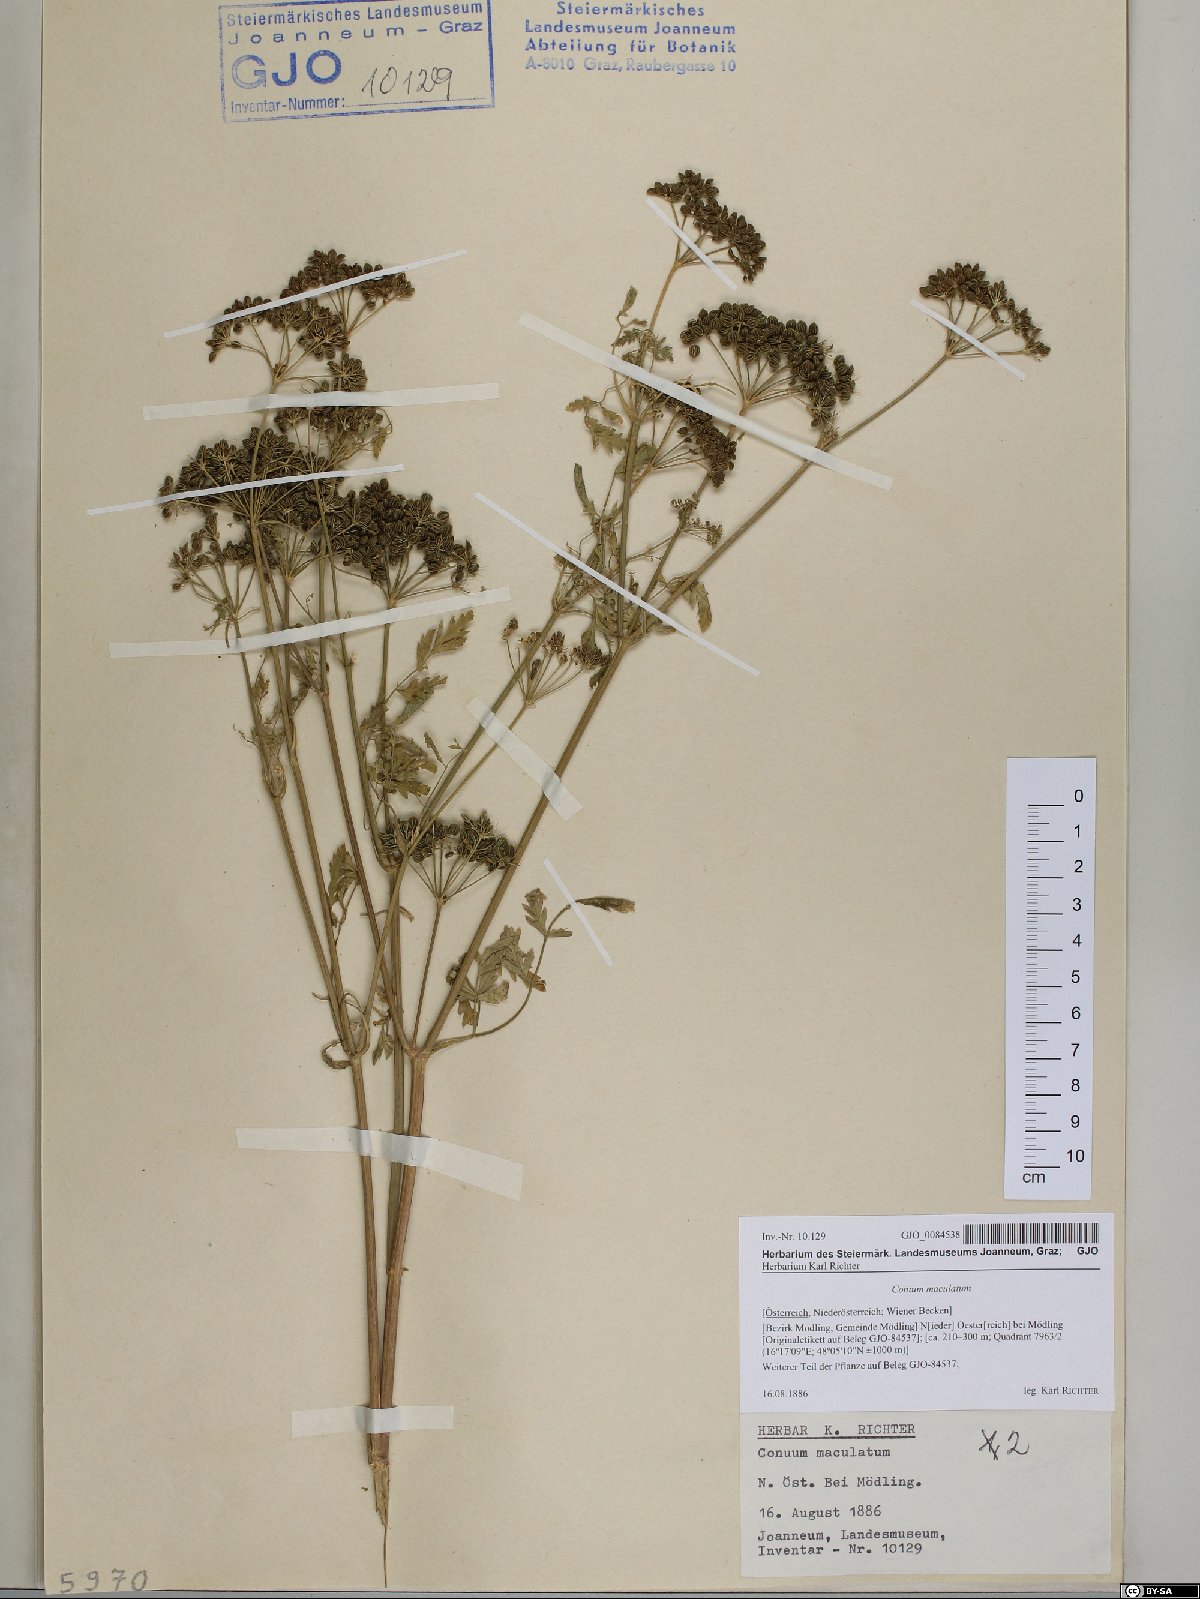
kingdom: Plantae
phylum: Tracheophyta
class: Magnoliopsida
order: Apiales
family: Apiaceae
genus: Conium
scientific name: Conium maculatum
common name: Hemlock
